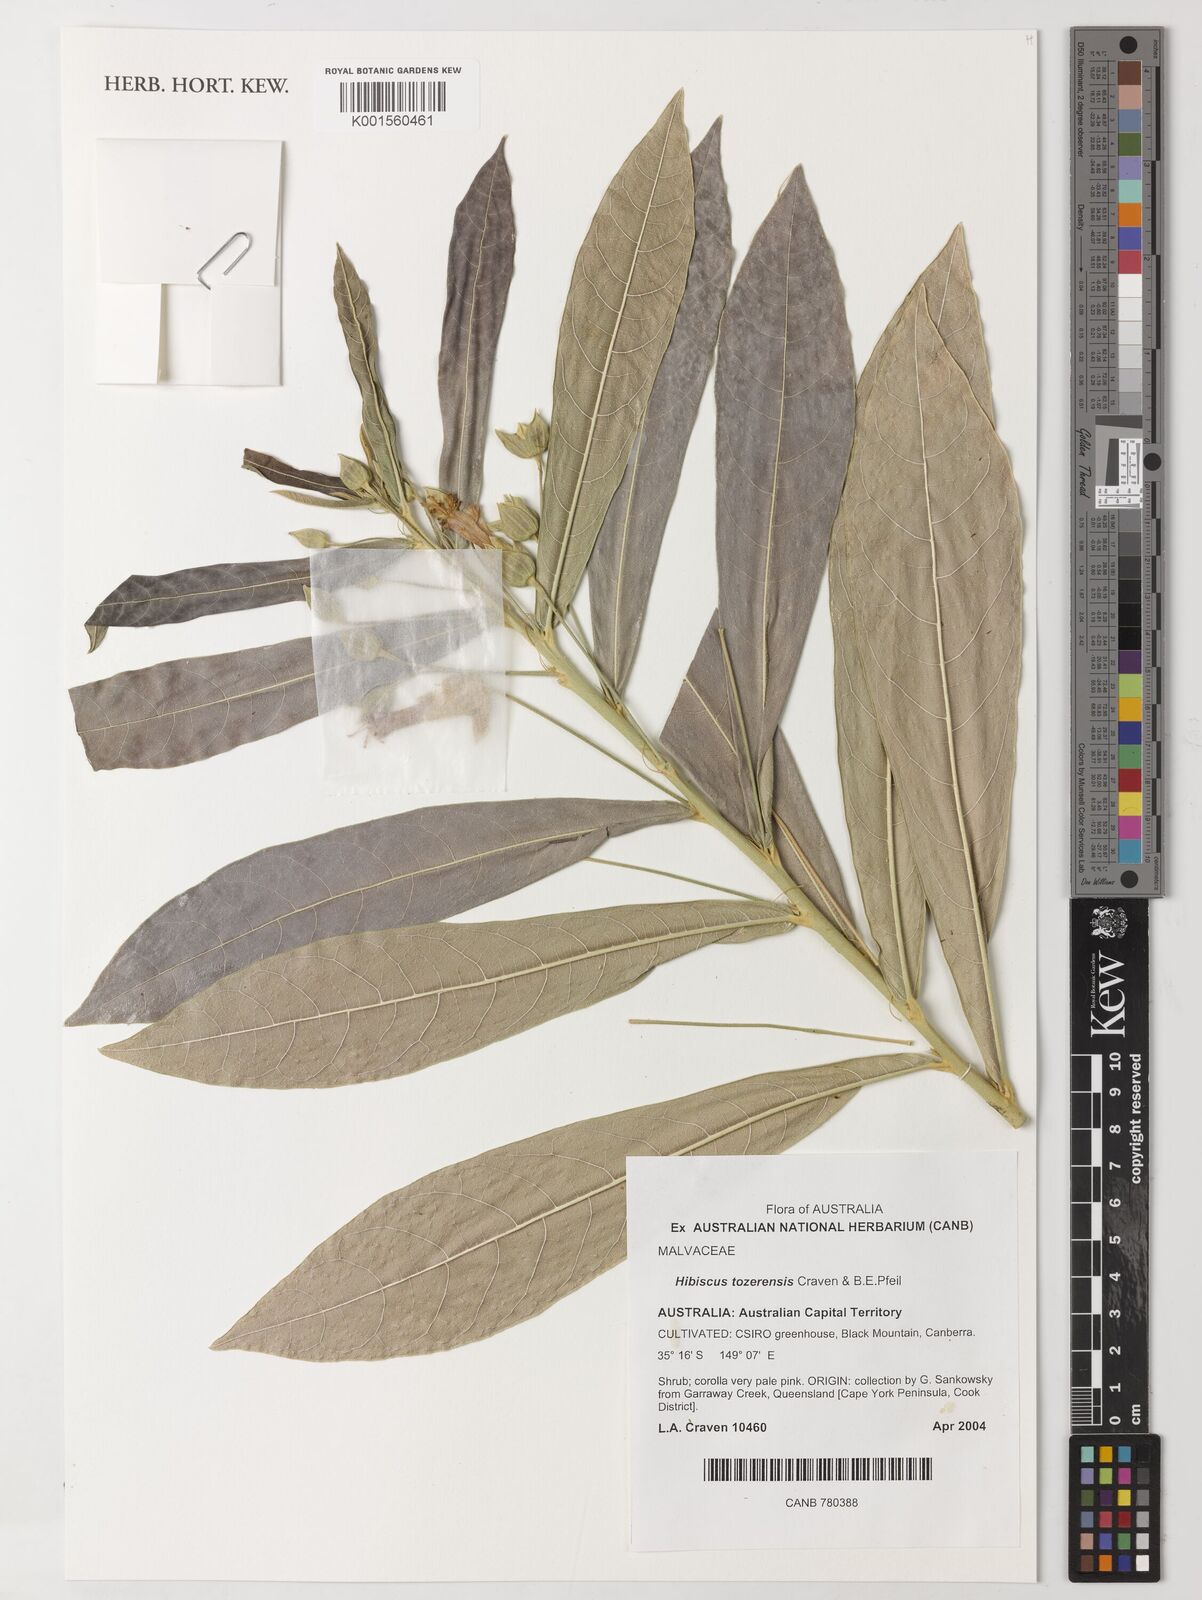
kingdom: Plantae
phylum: Tracheophyta
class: Magnoliopsida
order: Malvales
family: Malvaceae
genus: Hibiscus
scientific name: Hibiscus tozerensis
